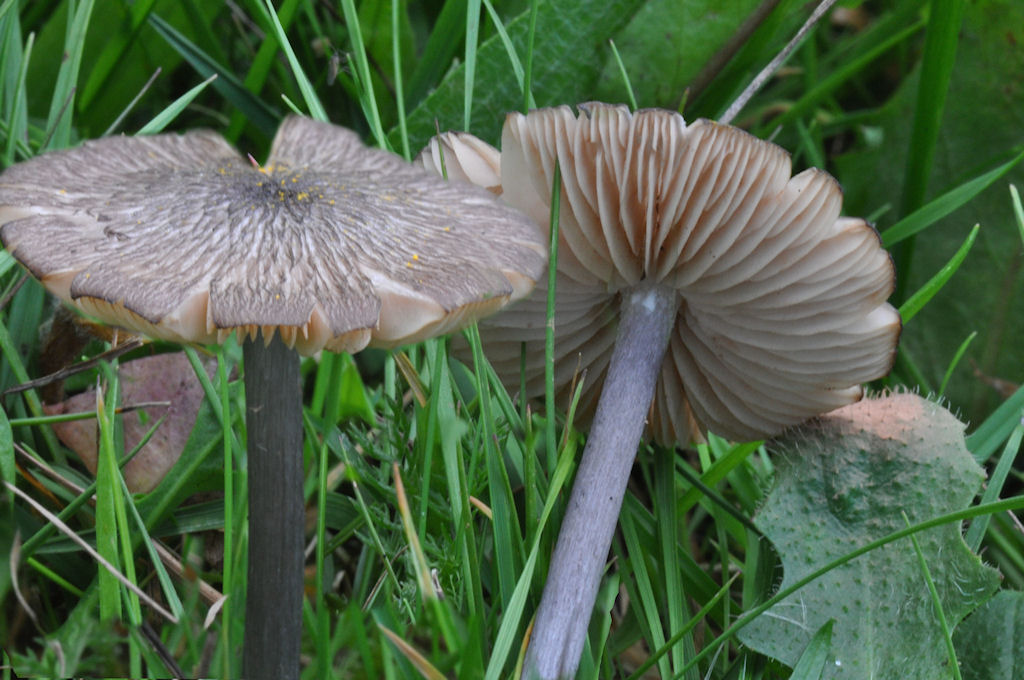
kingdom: Fungi
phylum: Basidiomycota
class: Agaricomycetes
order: Agaricales
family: Entolomataceae
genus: Entoloma
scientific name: Entoloma viiduense
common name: purpurbrun rødblad
